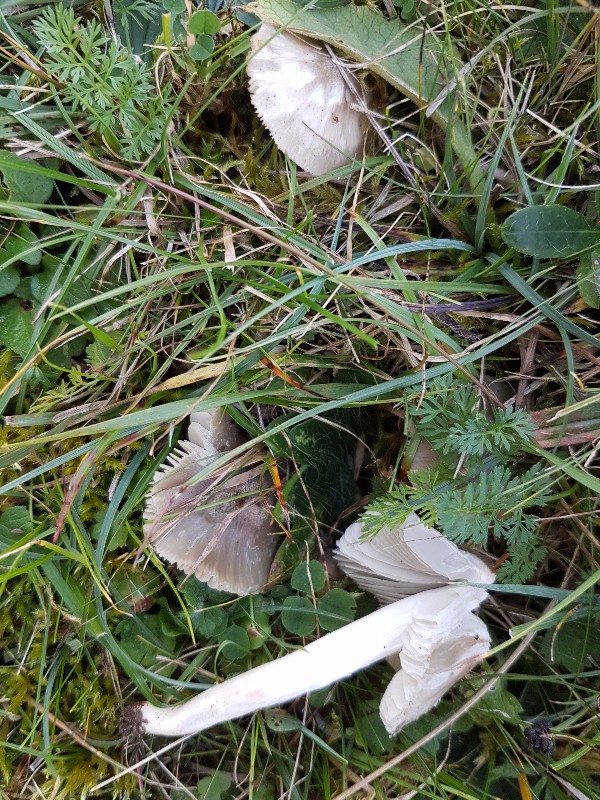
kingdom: Fungi
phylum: Basidiomycota
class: Agaricomycetes
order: Agaricales
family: Hygrophoraceae
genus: Cuphophyllus
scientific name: Cuphophyllus fornicatus
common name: gråbrun vokshat
